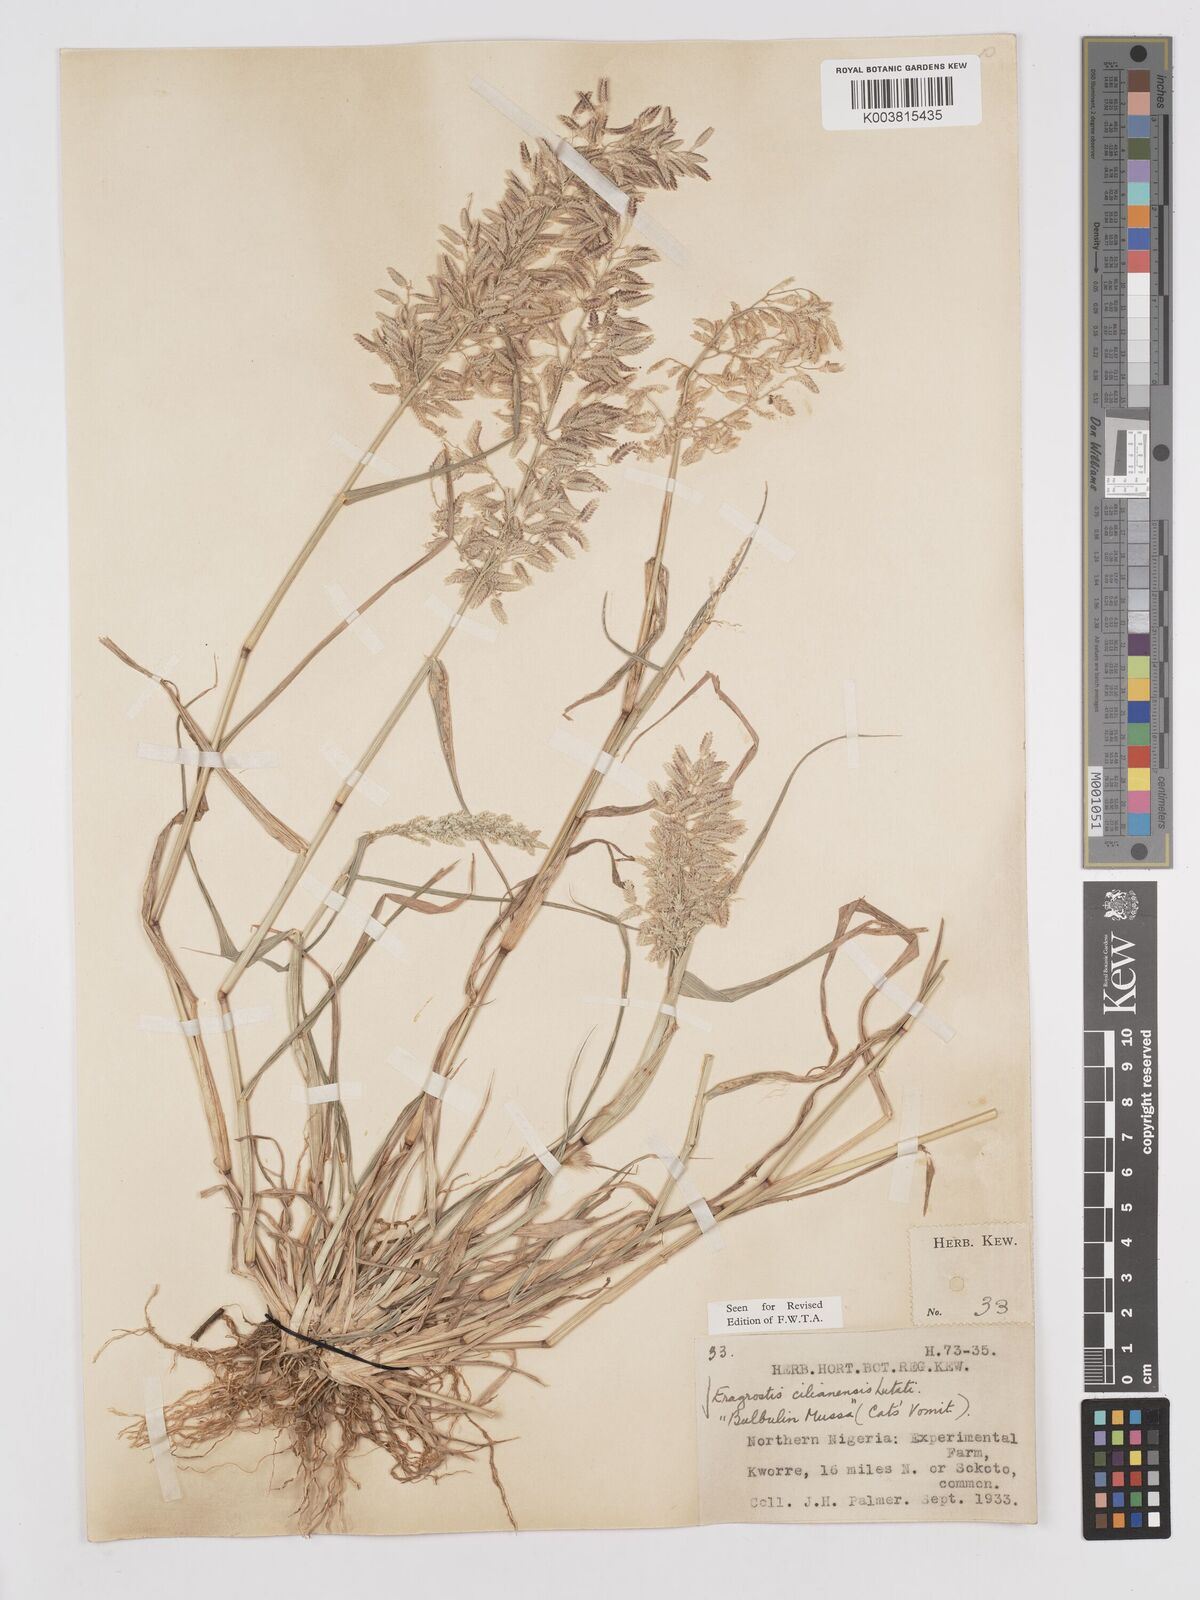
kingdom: Plantae
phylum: Tracheophyta
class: Liliopsida
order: Poales
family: Poaceae
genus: Eragrostis
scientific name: Eragrostis cilianensis
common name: Stinkgrass
